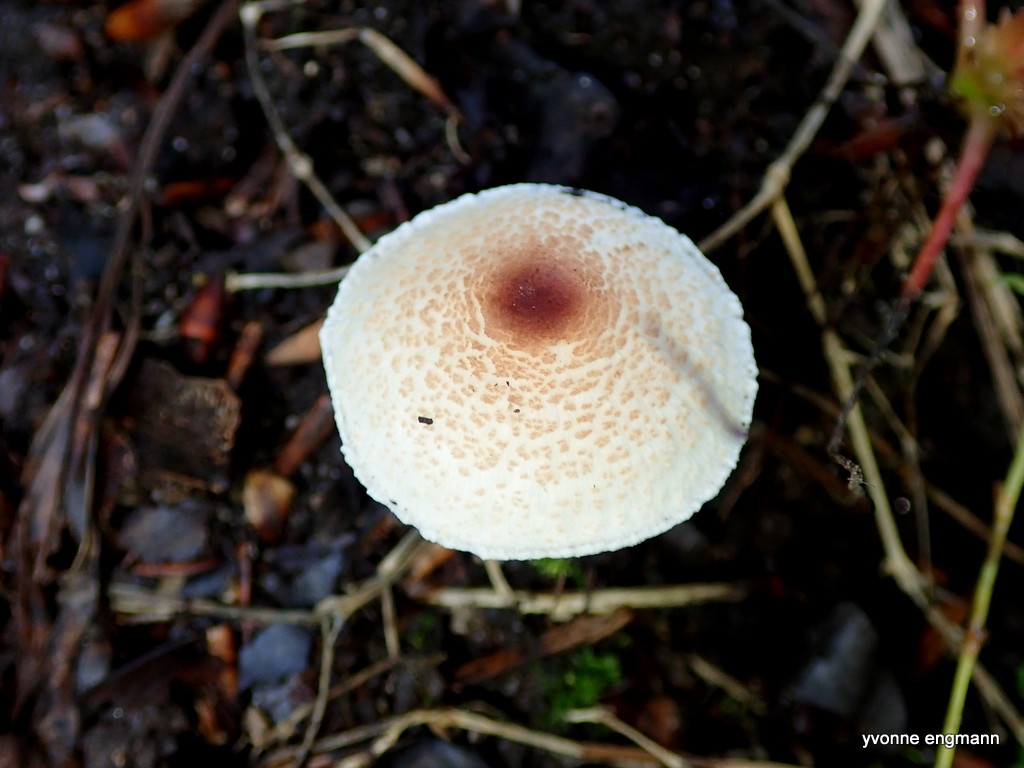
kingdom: Fungi
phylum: Basidiomycota
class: Agaricomycetes
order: Agaricales
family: Agaricaceae
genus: Lepiota
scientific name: Lepiota cristata
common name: stinkende parasolhat
